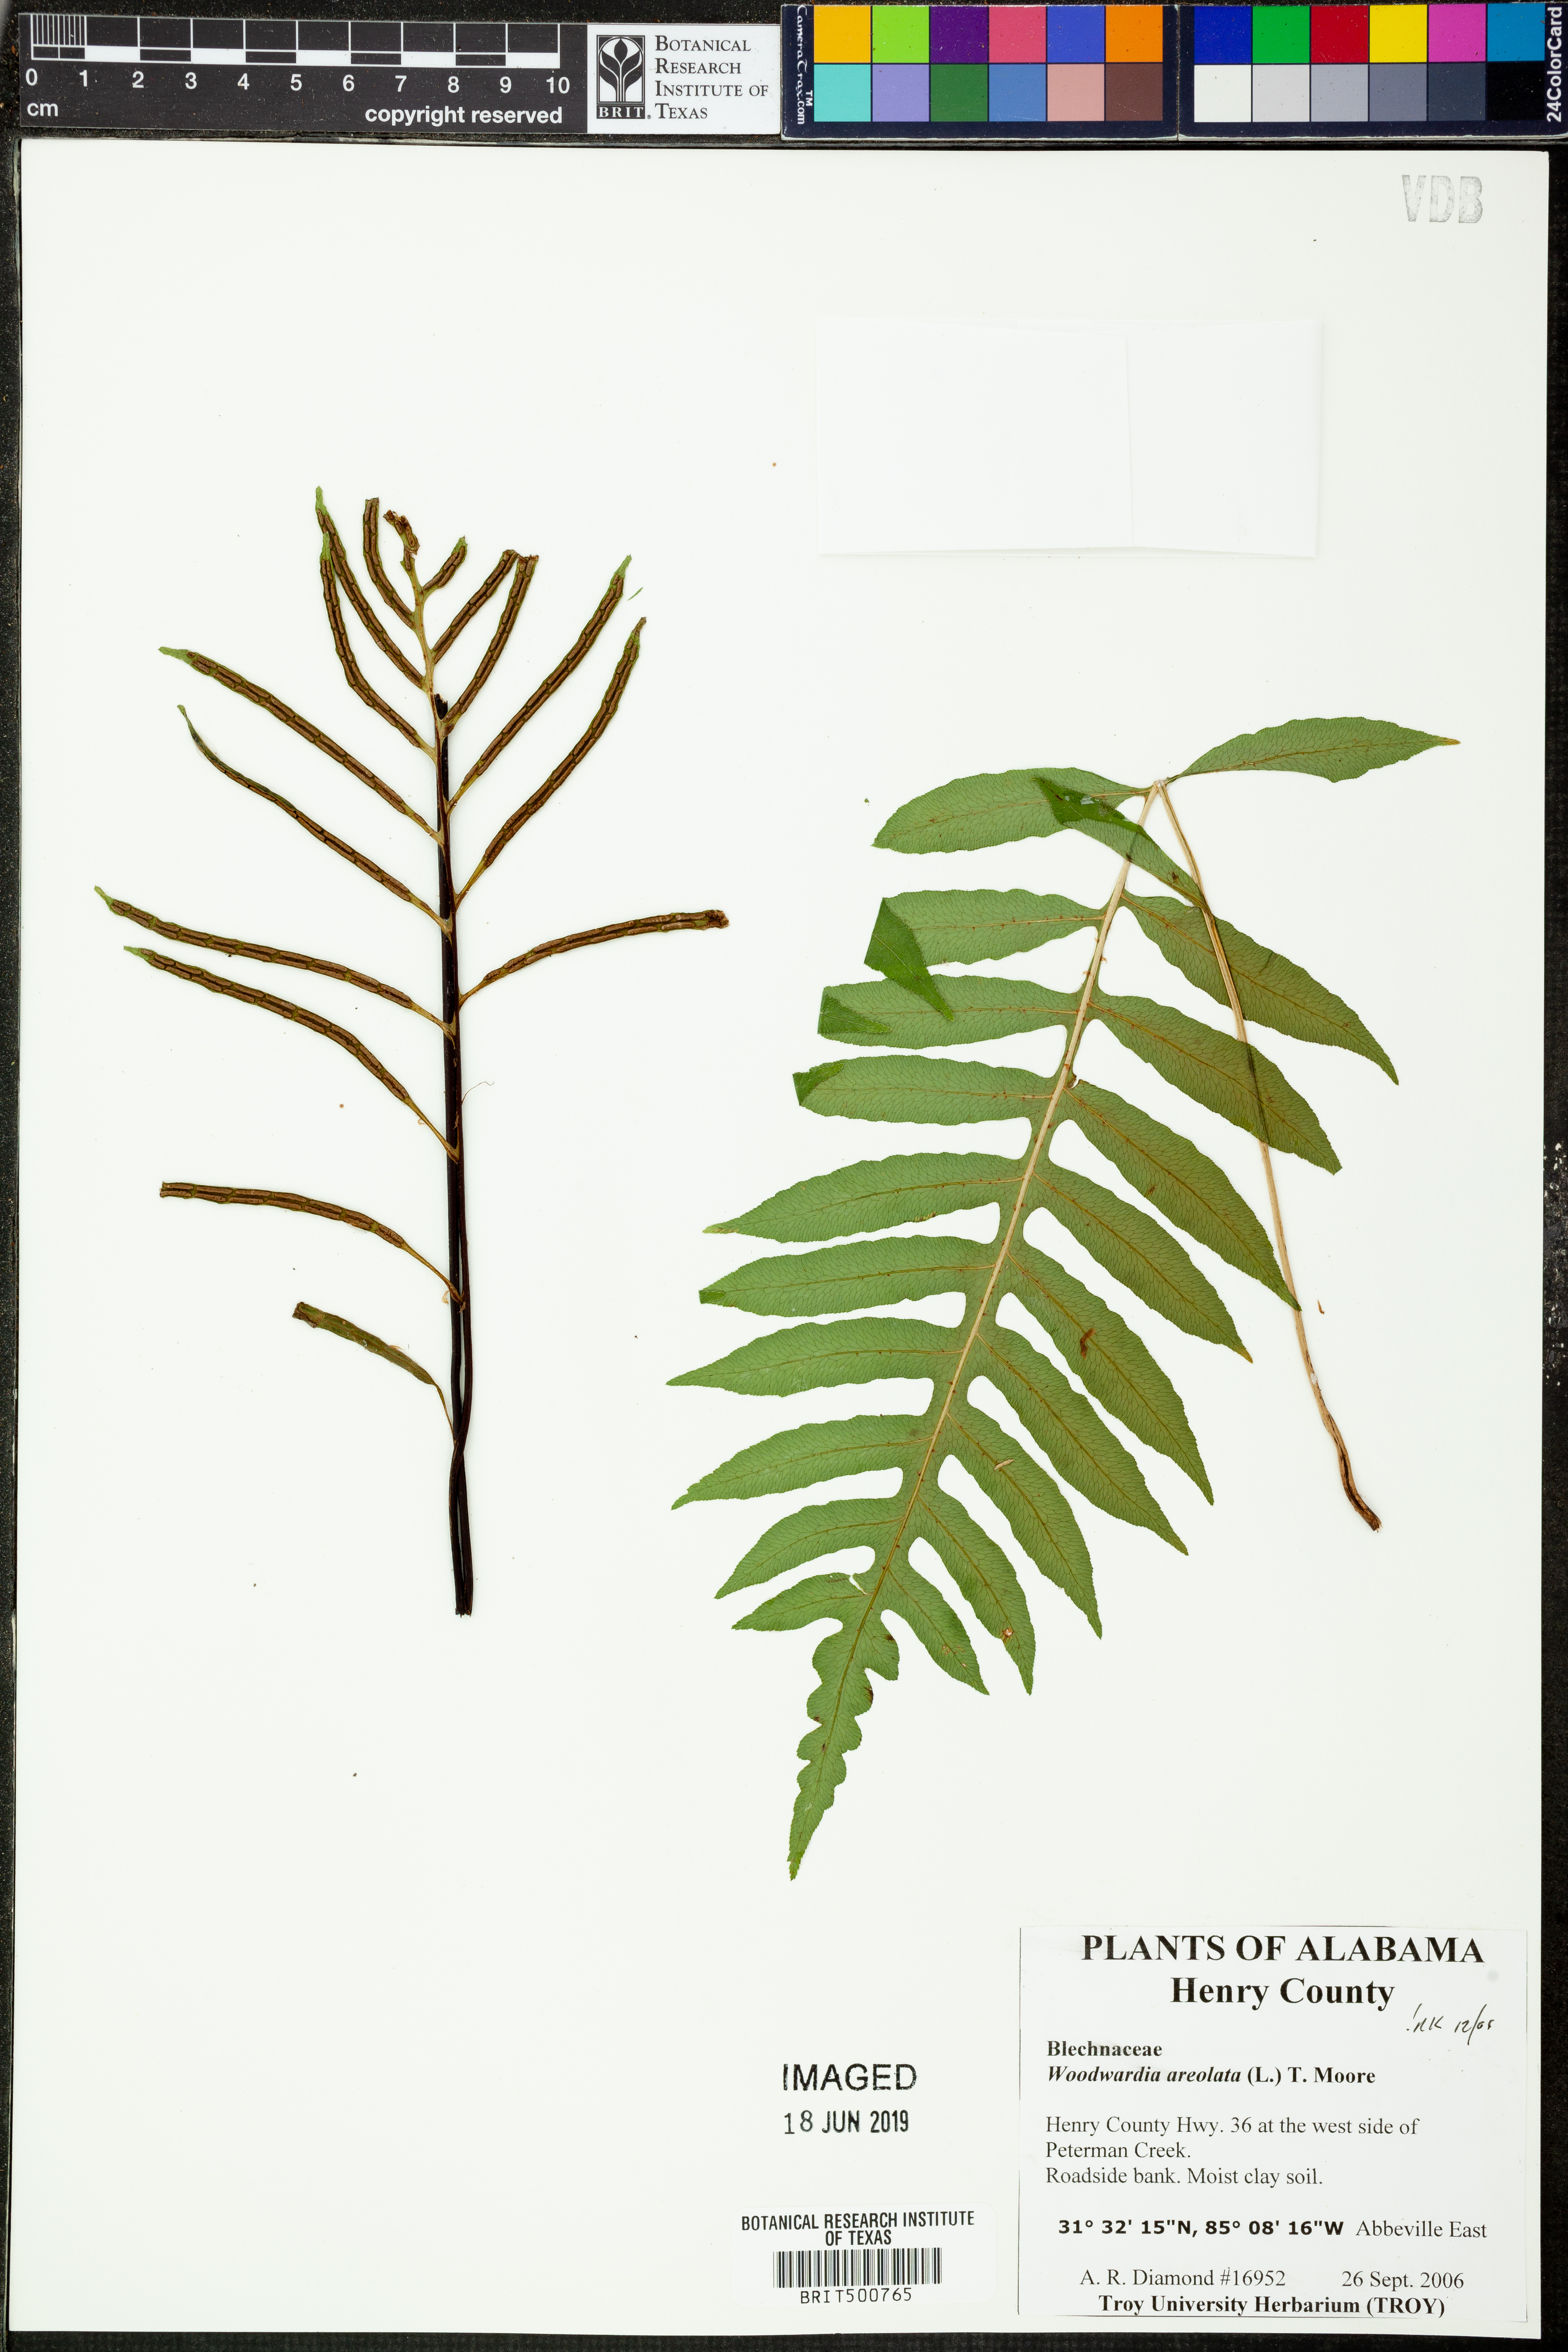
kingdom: Plantae
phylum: Tracheophyta
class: Polypodiopsida
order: Polypodiales
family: Blechnaceae
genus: Lorinseria
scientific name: Lorinseria areolata
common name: Dwarf chain fern
